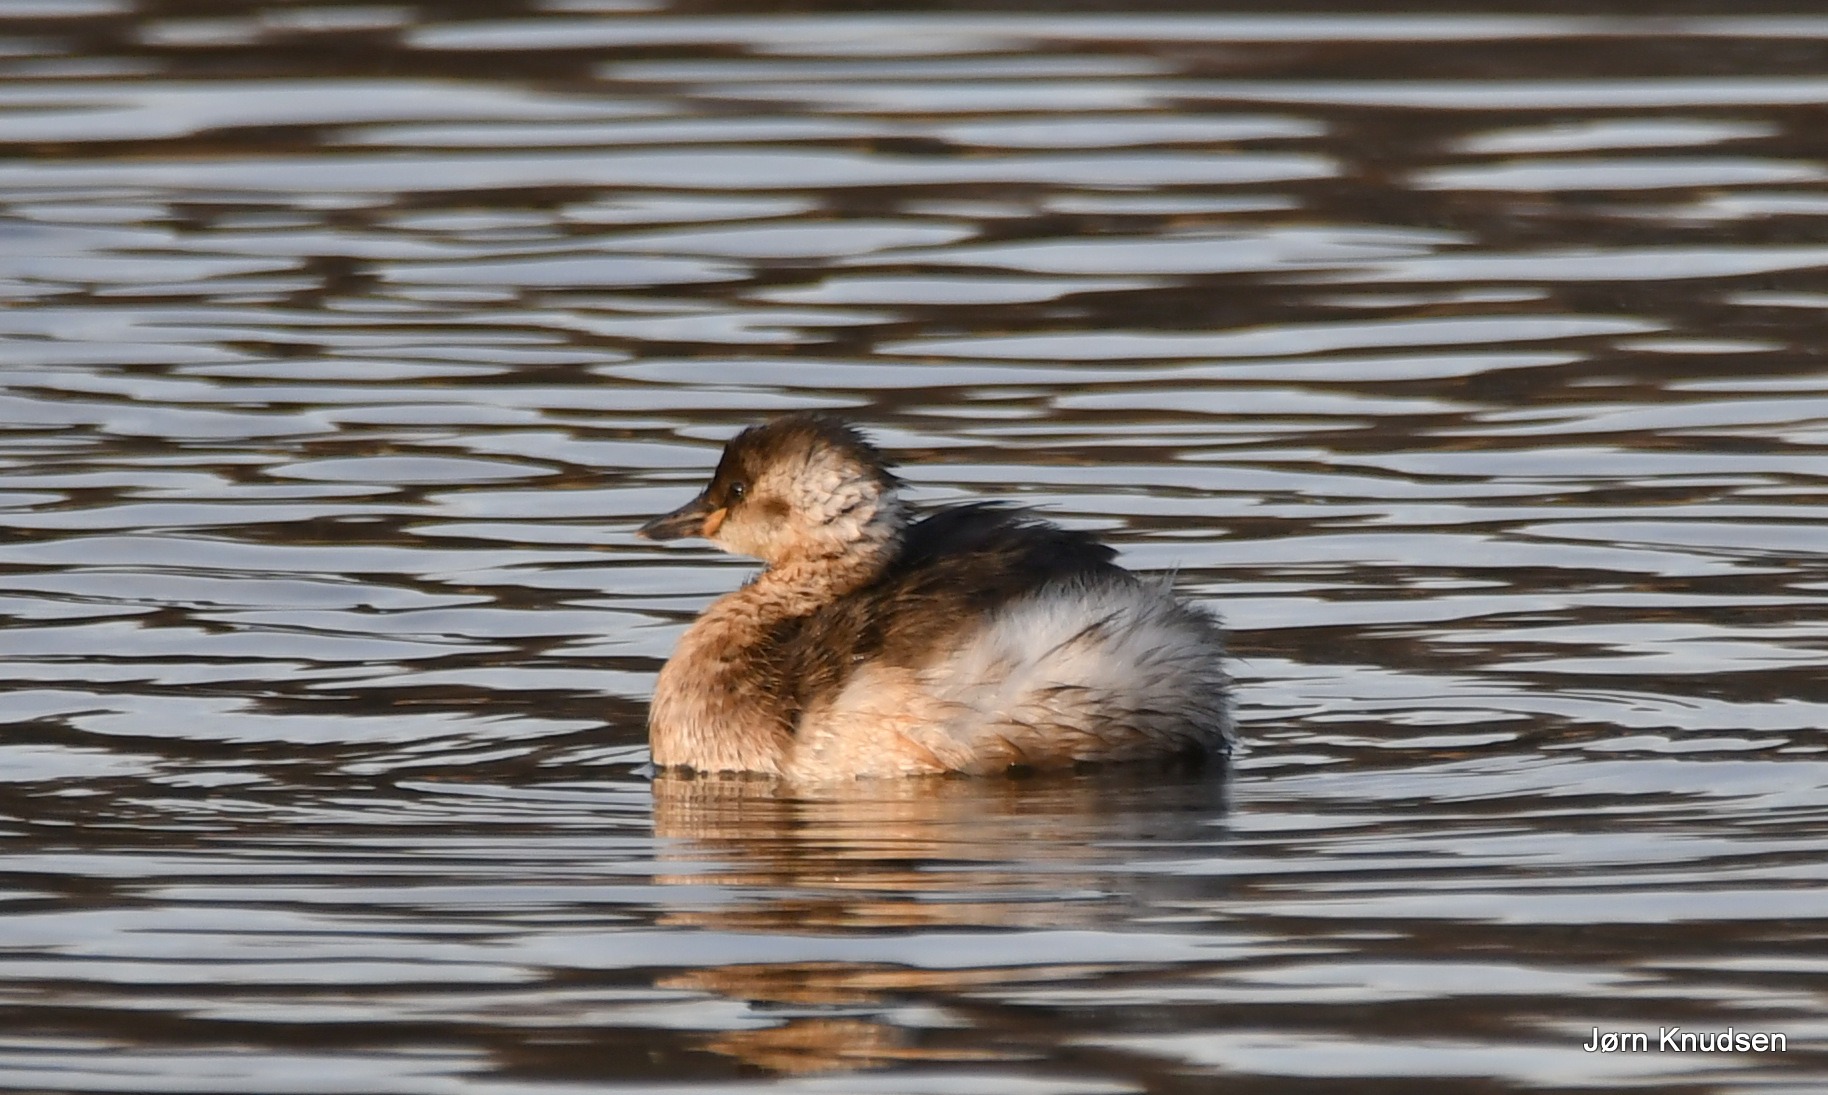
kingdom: Animalia
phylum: Chordata
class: Aves
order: Podicipediformes
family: Podicipedidae
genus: Tachybaptus
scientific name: Tachybaptus ruficollis
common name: Lille lappedykker
